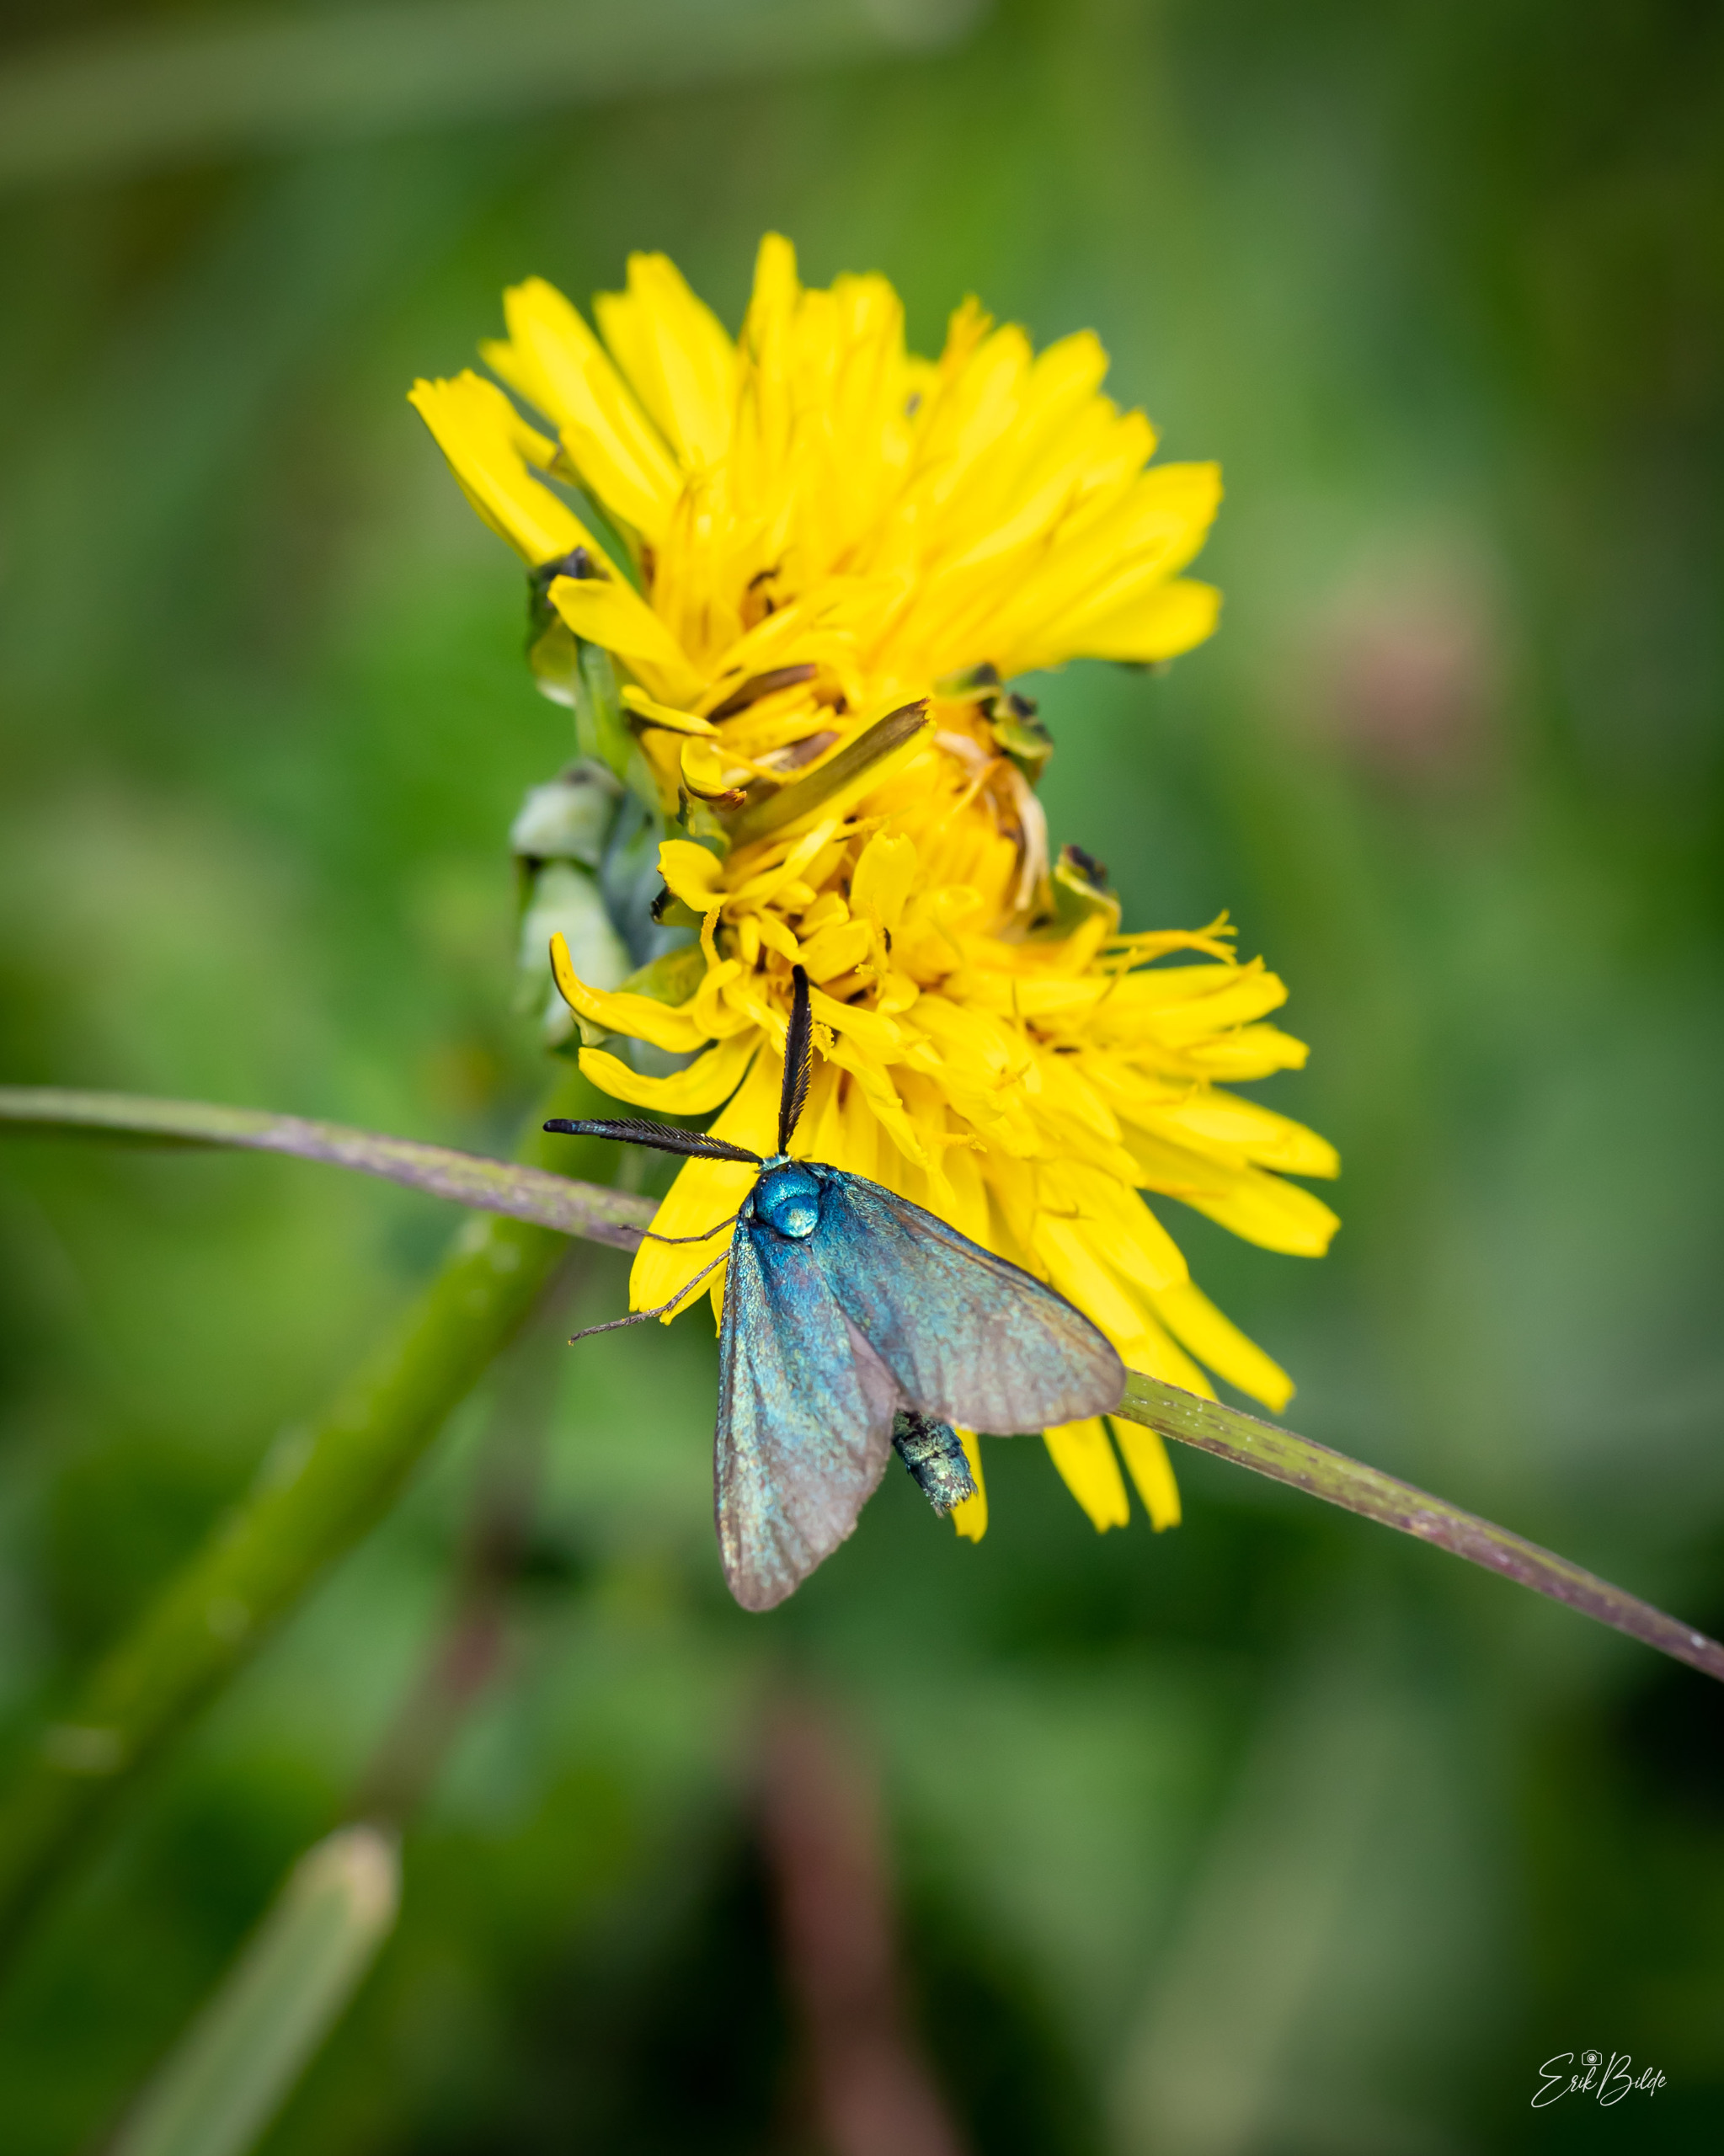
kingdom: Animalia
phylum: Arthropoda
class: Insecta
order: Lepidoptera
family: Zygaenidae
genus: Adscita
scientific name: Adscita statices
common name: Metalvinge
